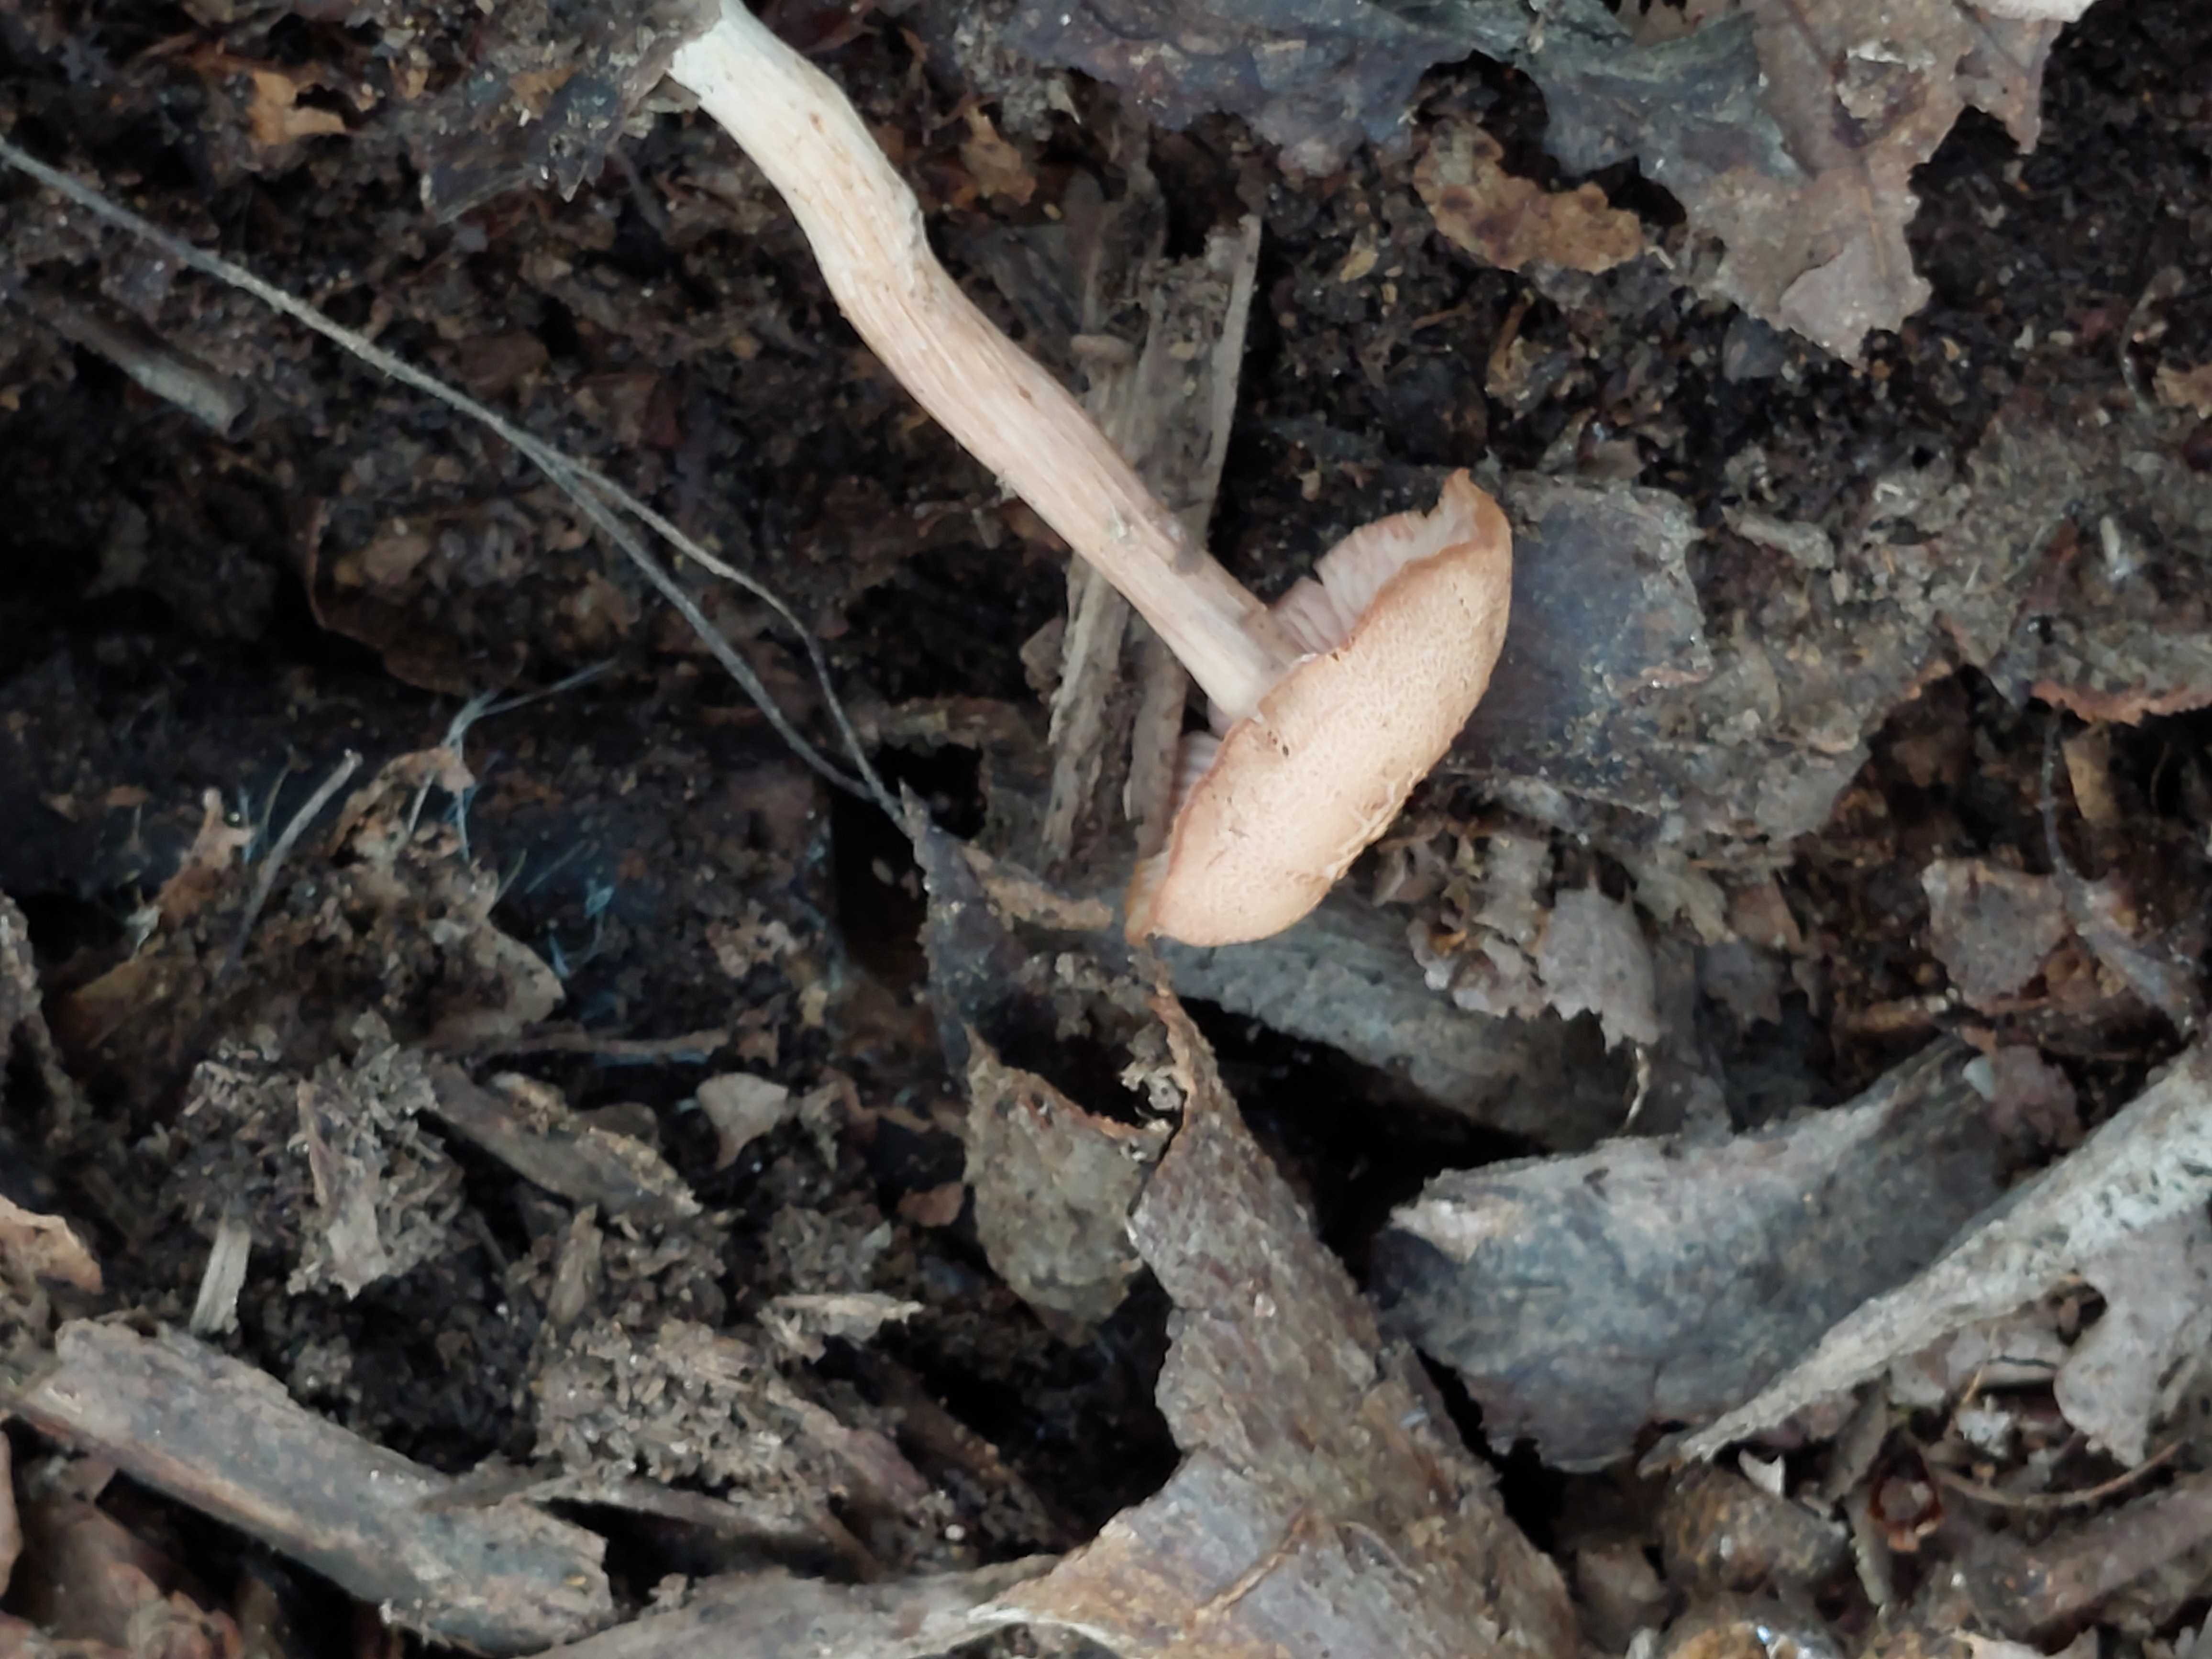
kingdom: Fungi
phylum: Basidiomycota
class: Agaricomycetes
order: Agaricales
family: Hydnangiaceae
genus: Laccaria
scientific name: Laccaria laccata
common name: rød ametysthat
